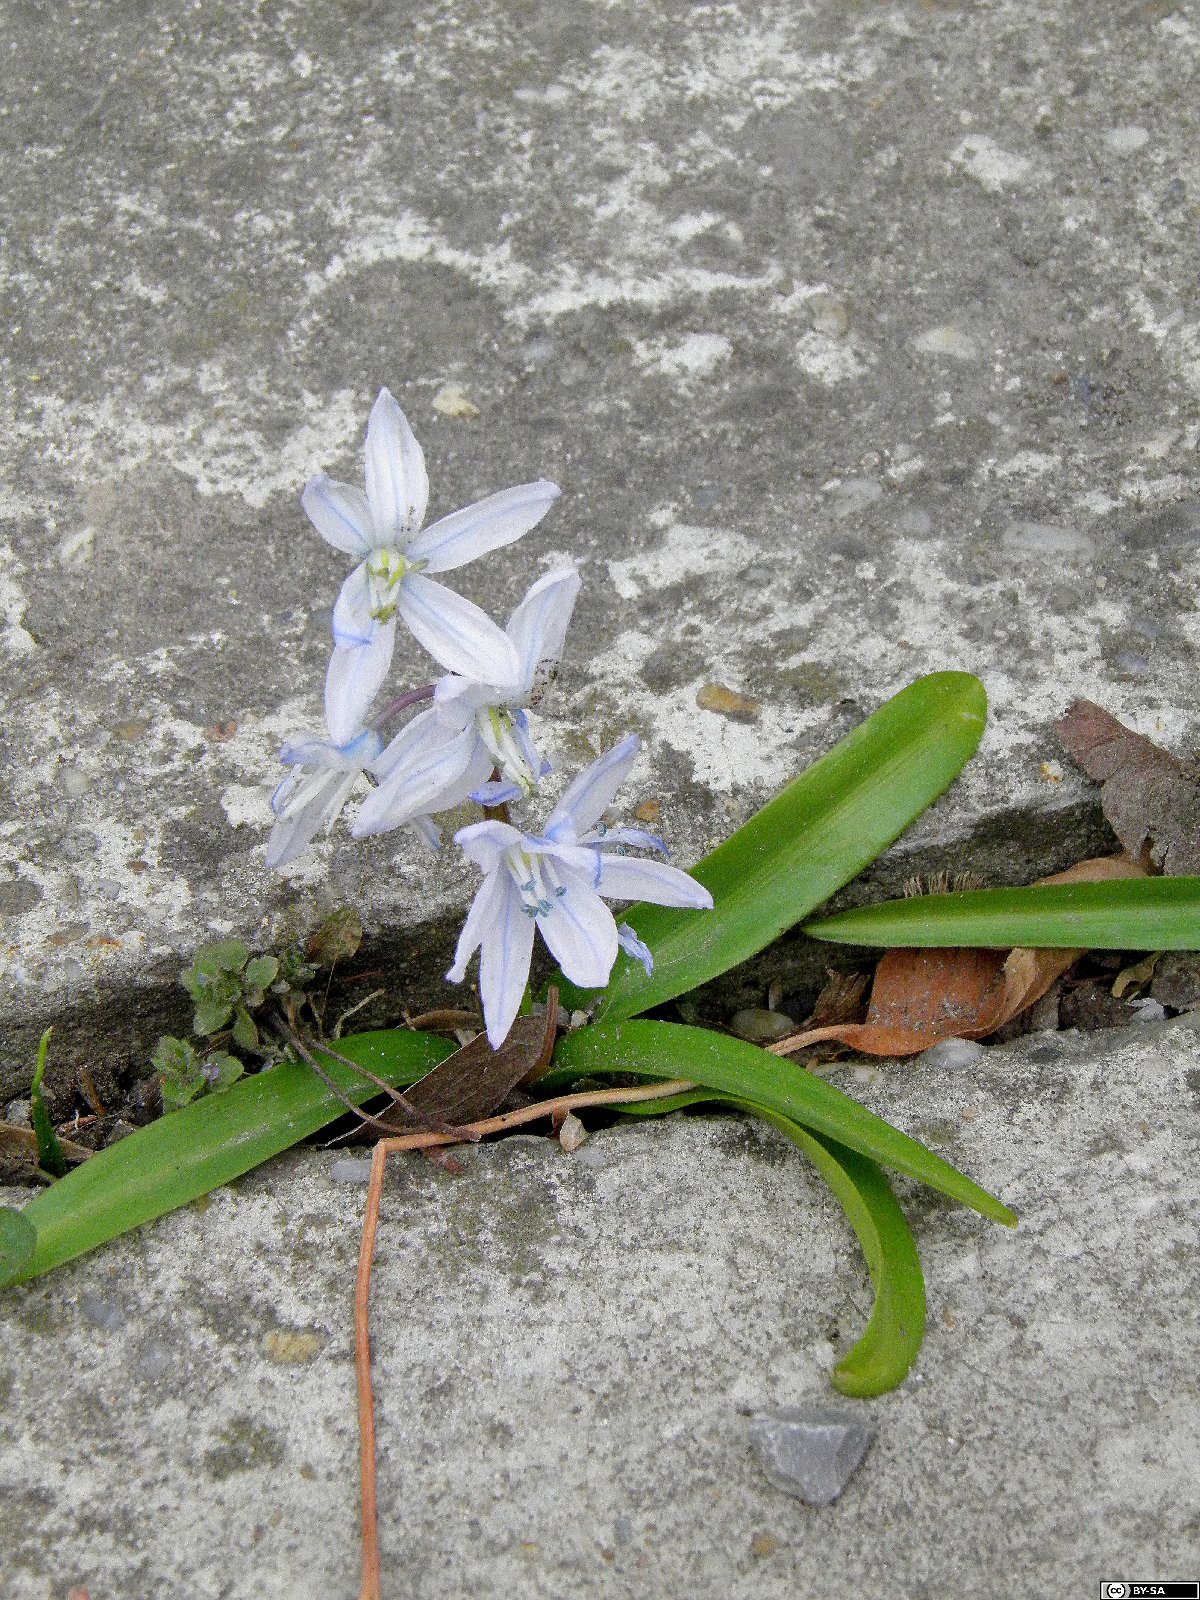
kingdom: Plantae
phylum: Tracheophyta
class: Liliopsida
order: Asparagales
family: Asparagaceae
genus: Scilla
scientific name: Scilla mischtschenkoana
